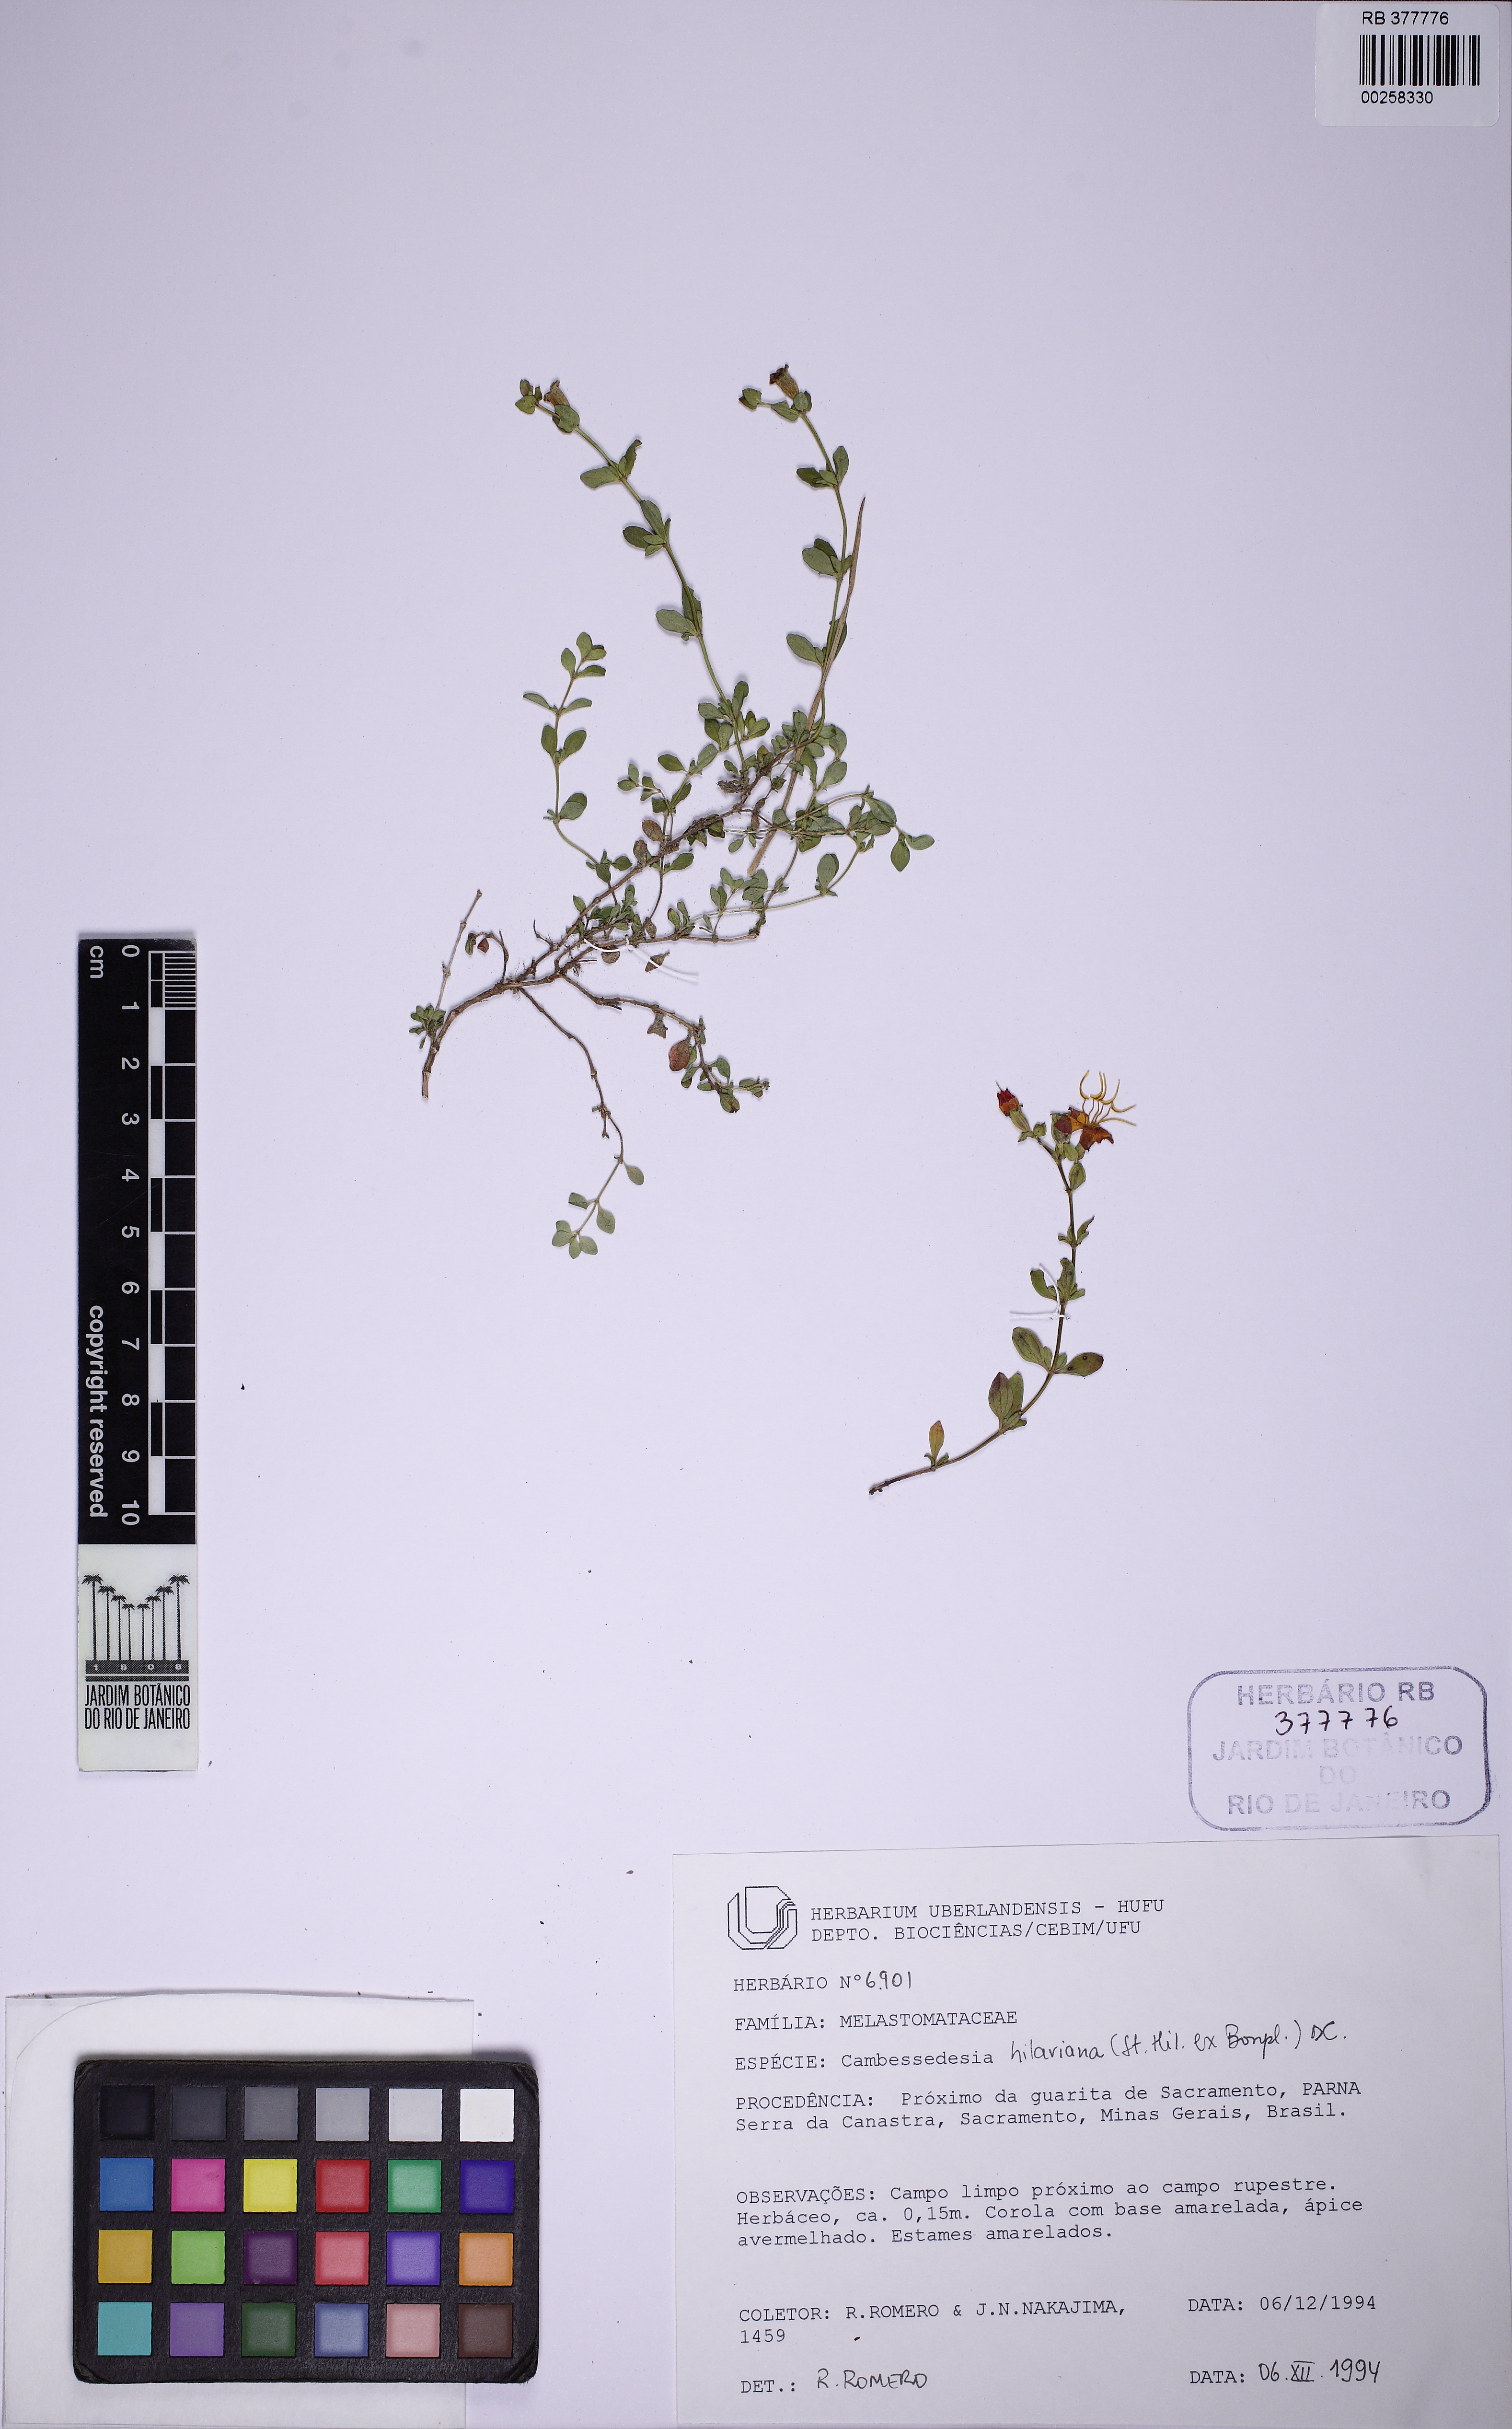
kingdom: Plantae
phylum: Tracheophyta
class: Magnoliopsida
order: Myrtales
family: Melastomataceae
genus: Cambessedesia
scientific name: Cambessedesia hilariana
